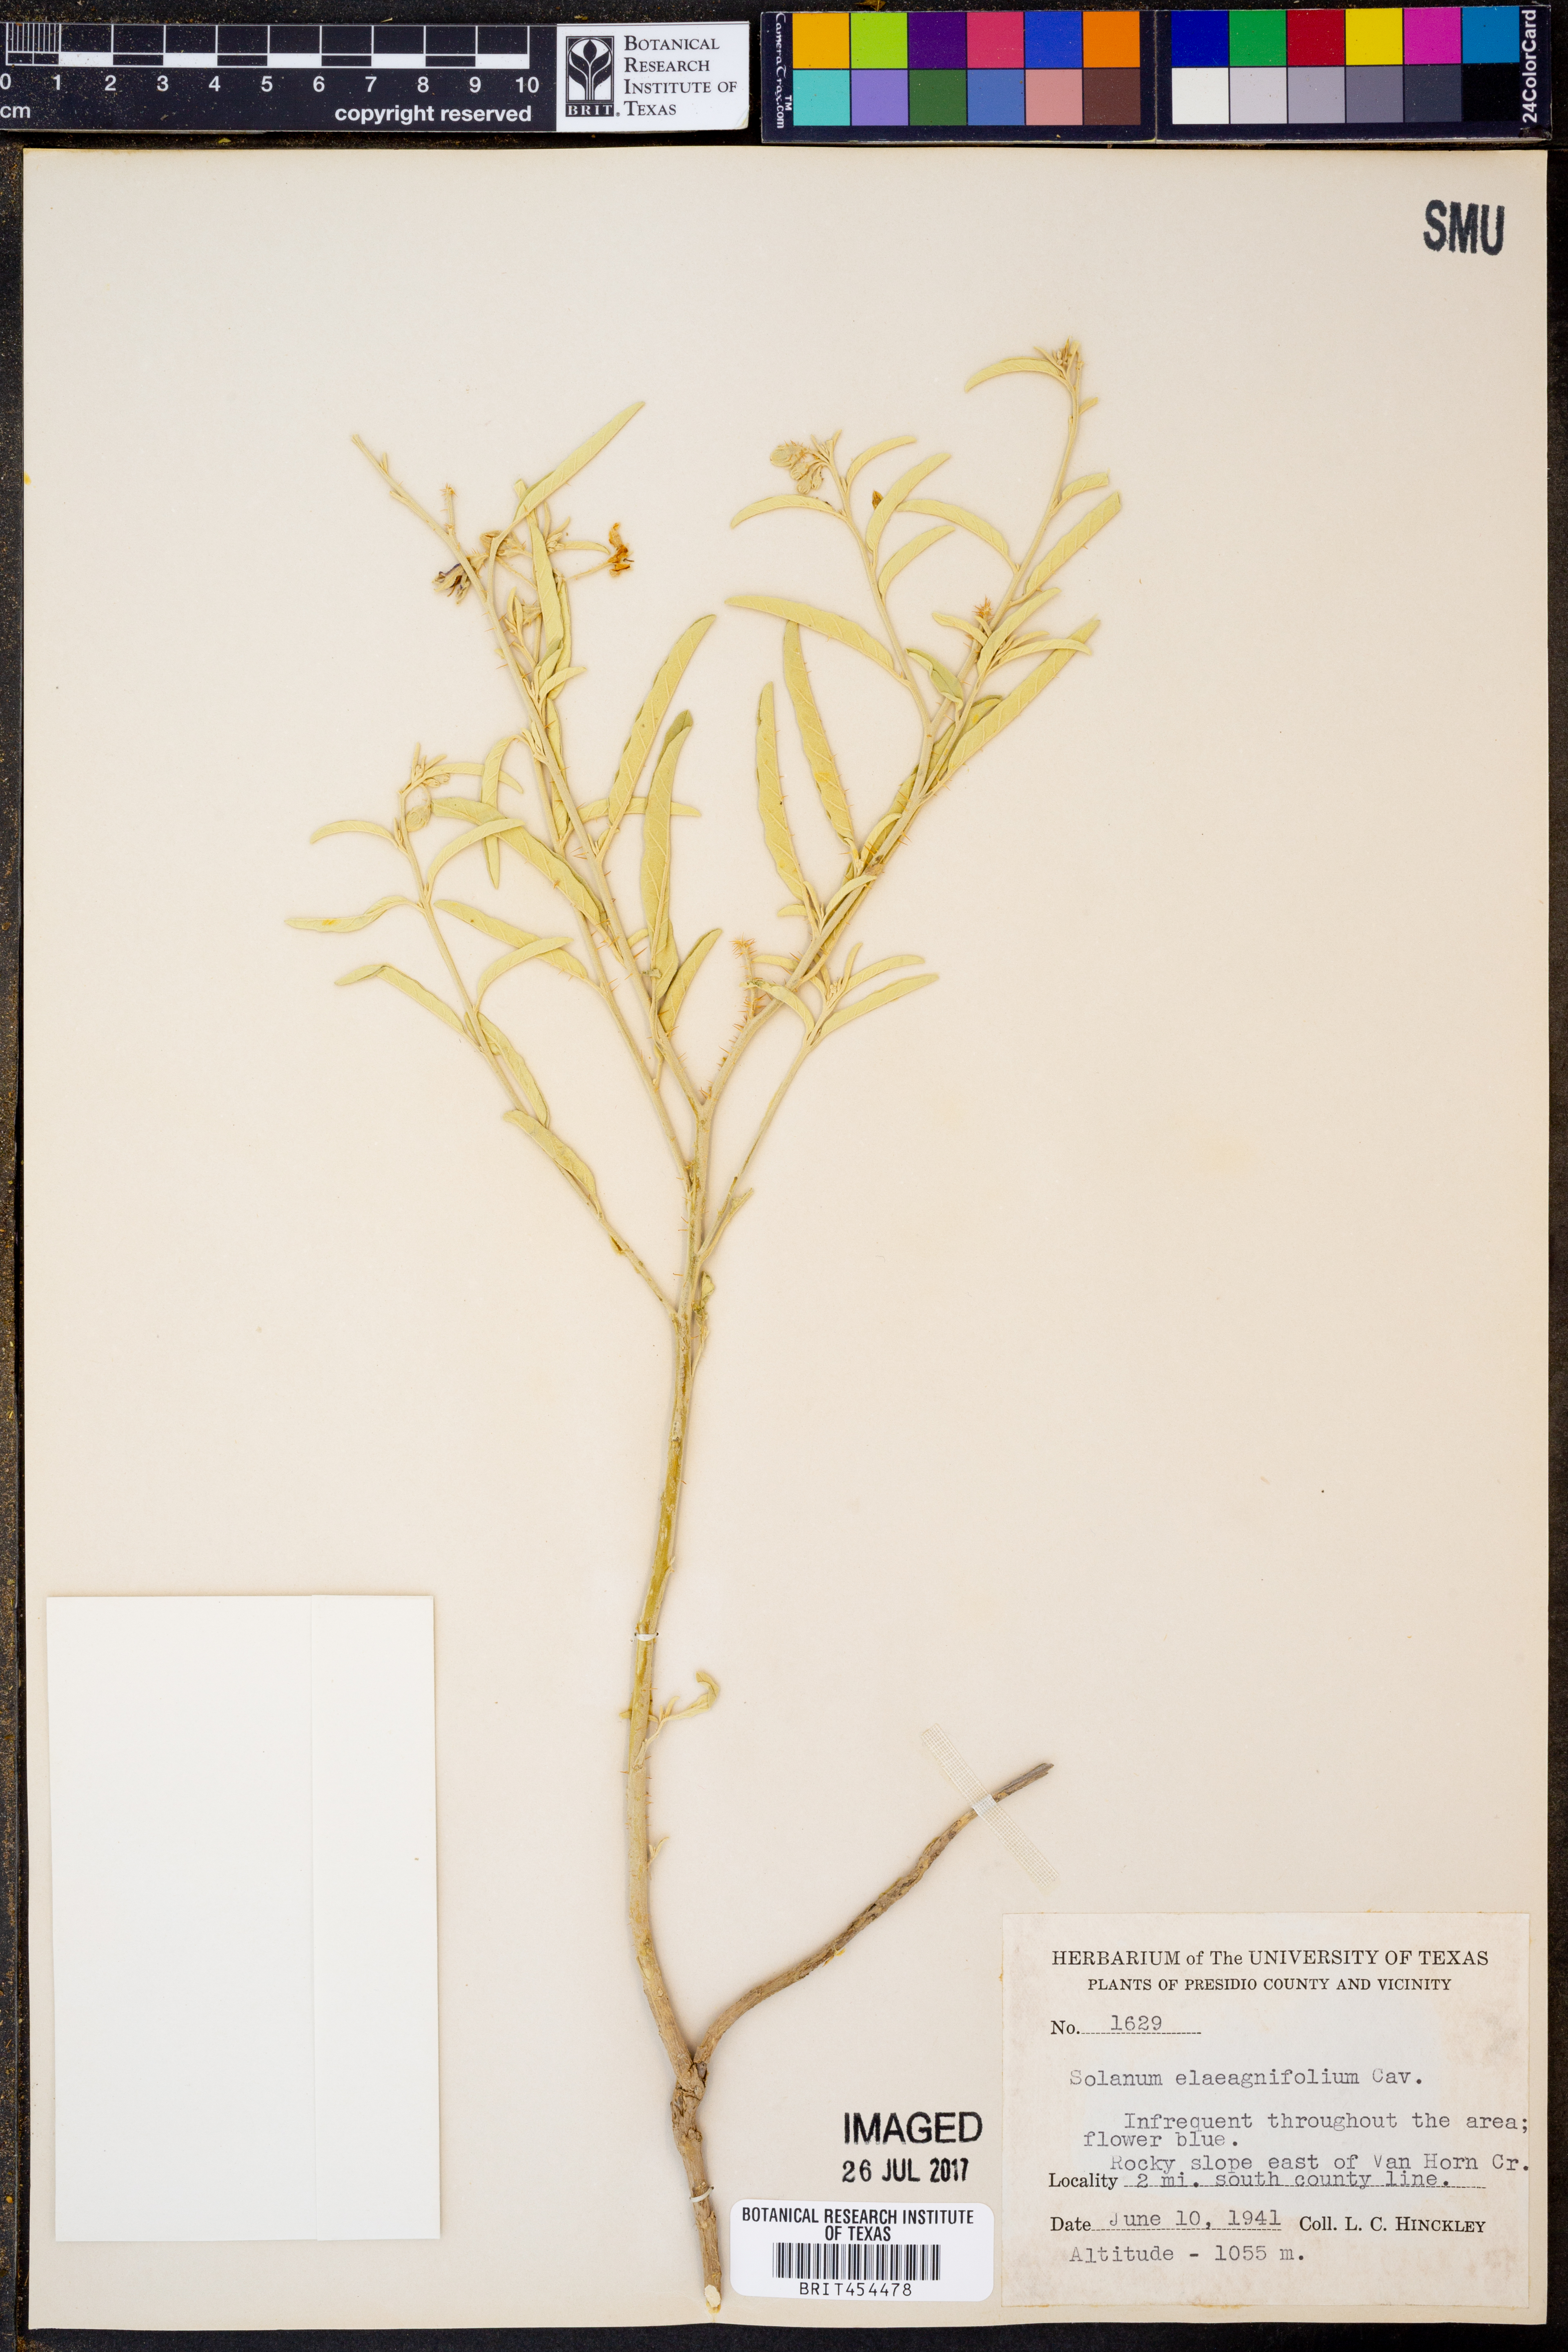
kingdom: Plantae
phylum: Tracheophyta
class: Magnoliopsida
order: Solanales
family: Solanaceae
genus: Solanum
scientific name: Solanum elaeagnifolium
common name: Silverleaf nightshade
